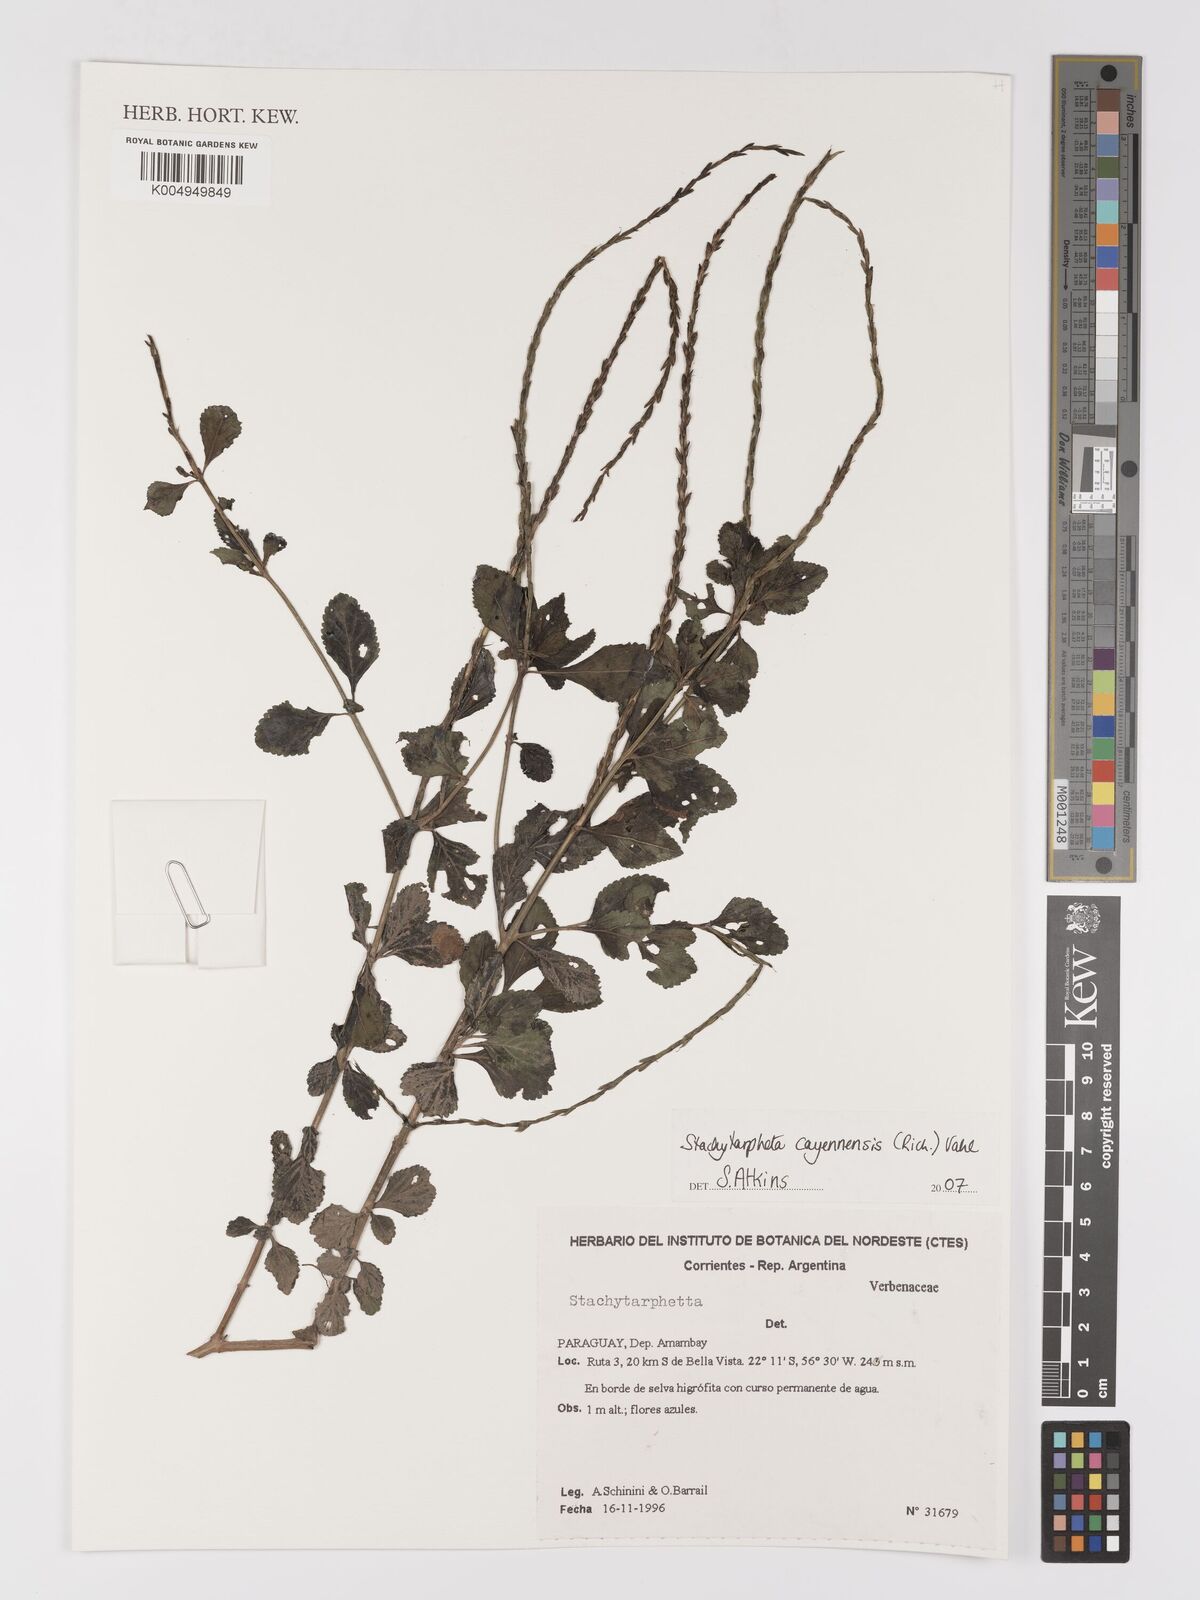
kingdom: Plantae
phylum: Tracheophyta
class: Magnoliopsida
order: Lamiales
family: Verbenaceae
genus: Stachytarpheta
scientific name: Stachytarpheta cayennensis
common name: Cayenne porterweed
